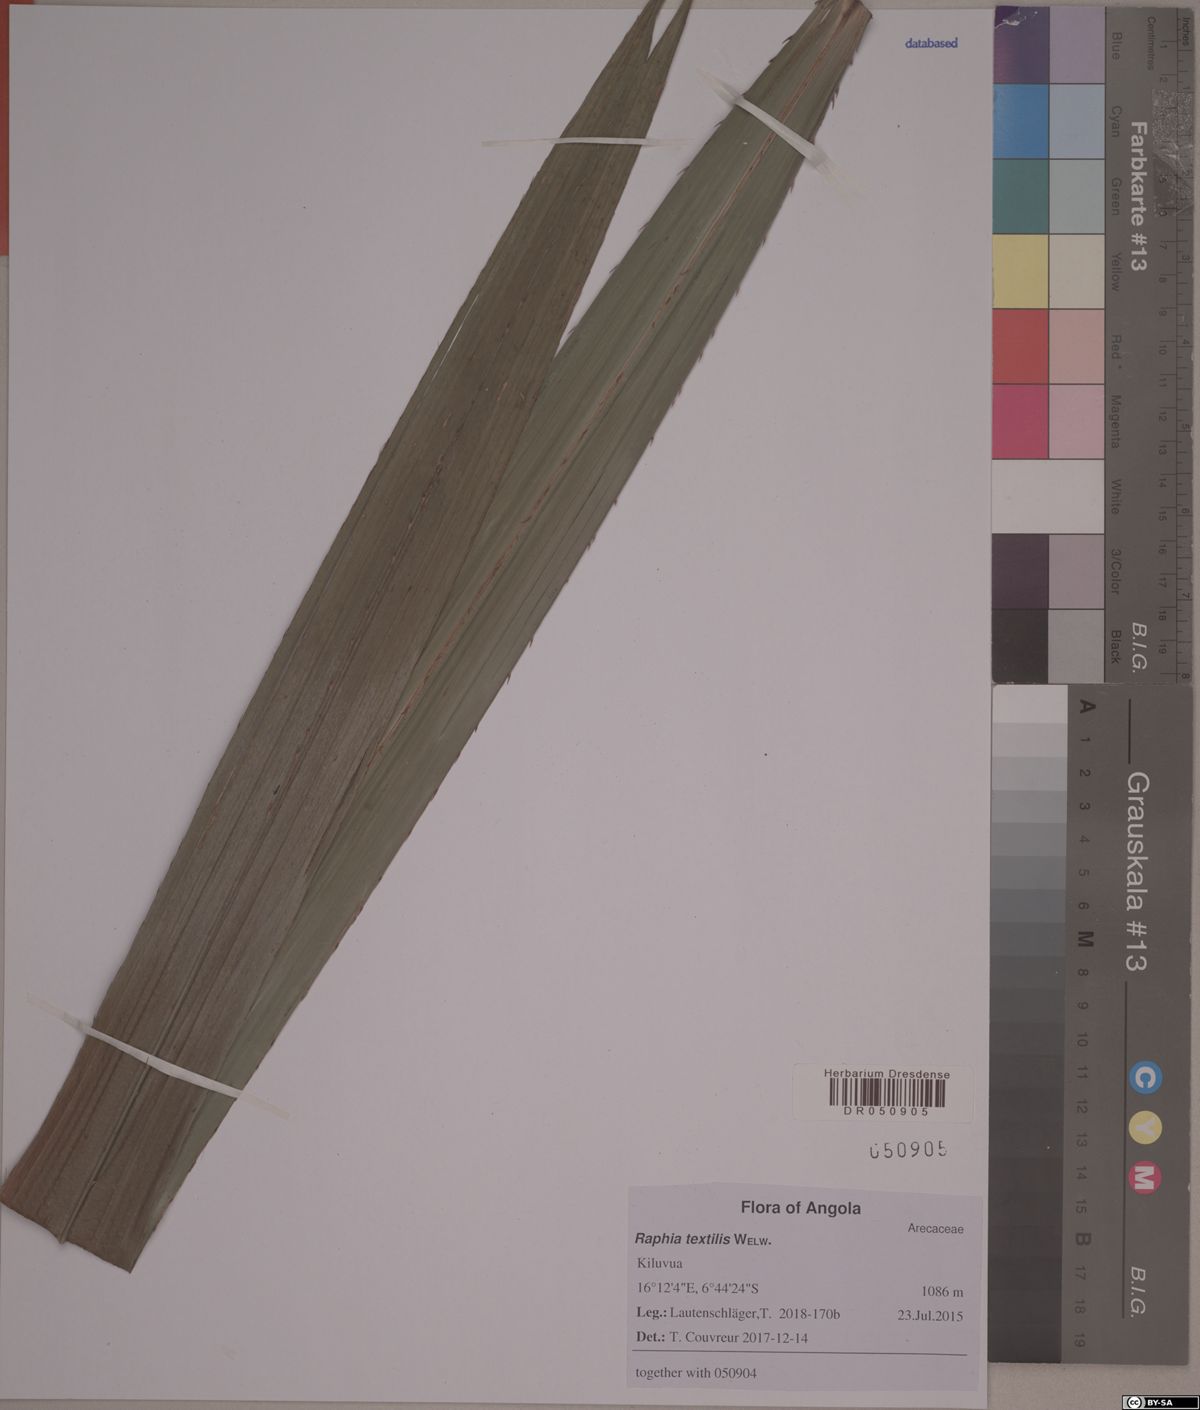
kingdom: Plantae
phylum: Tracheophyta
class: Liliopsida
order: Arecales
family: Arecaceae
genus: Raphia
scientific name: Raphia textilis
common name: Raphia palm
